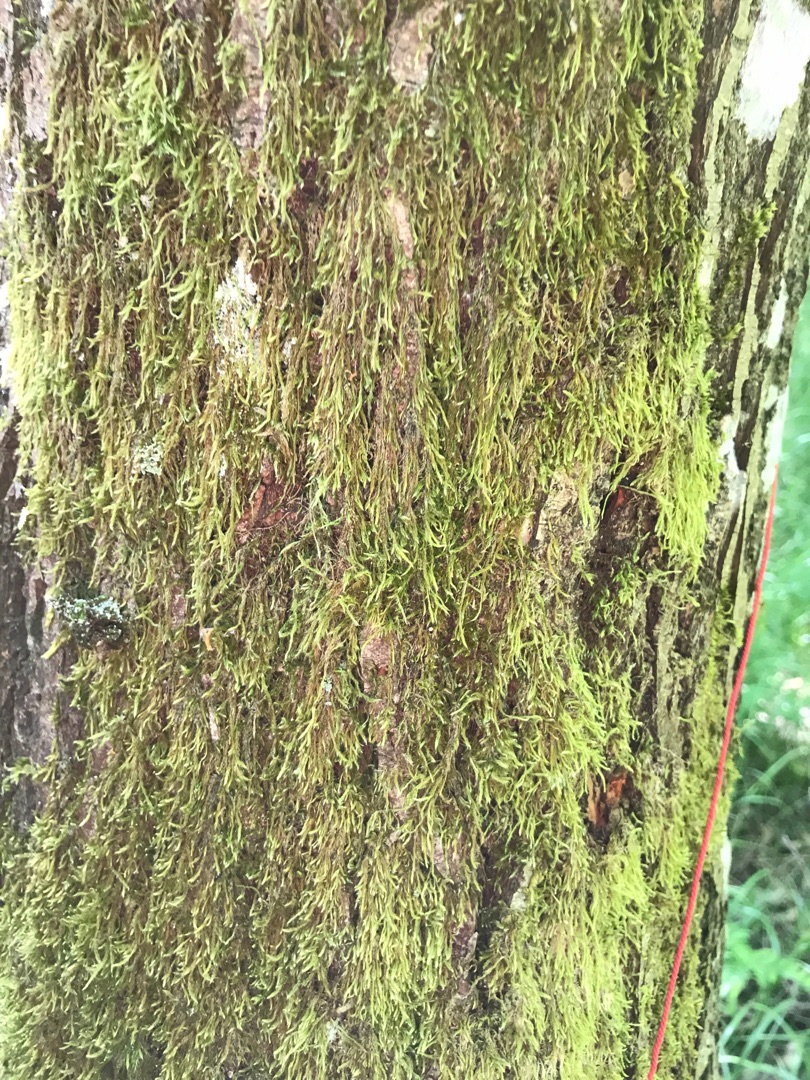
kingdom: Plantae
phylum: Bryophyta
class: Bryopsida
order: Hypnales
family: Hypnaceae
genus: Hypnum
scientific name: Hypnum cupressiforme
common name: Almindelig cypresmos
